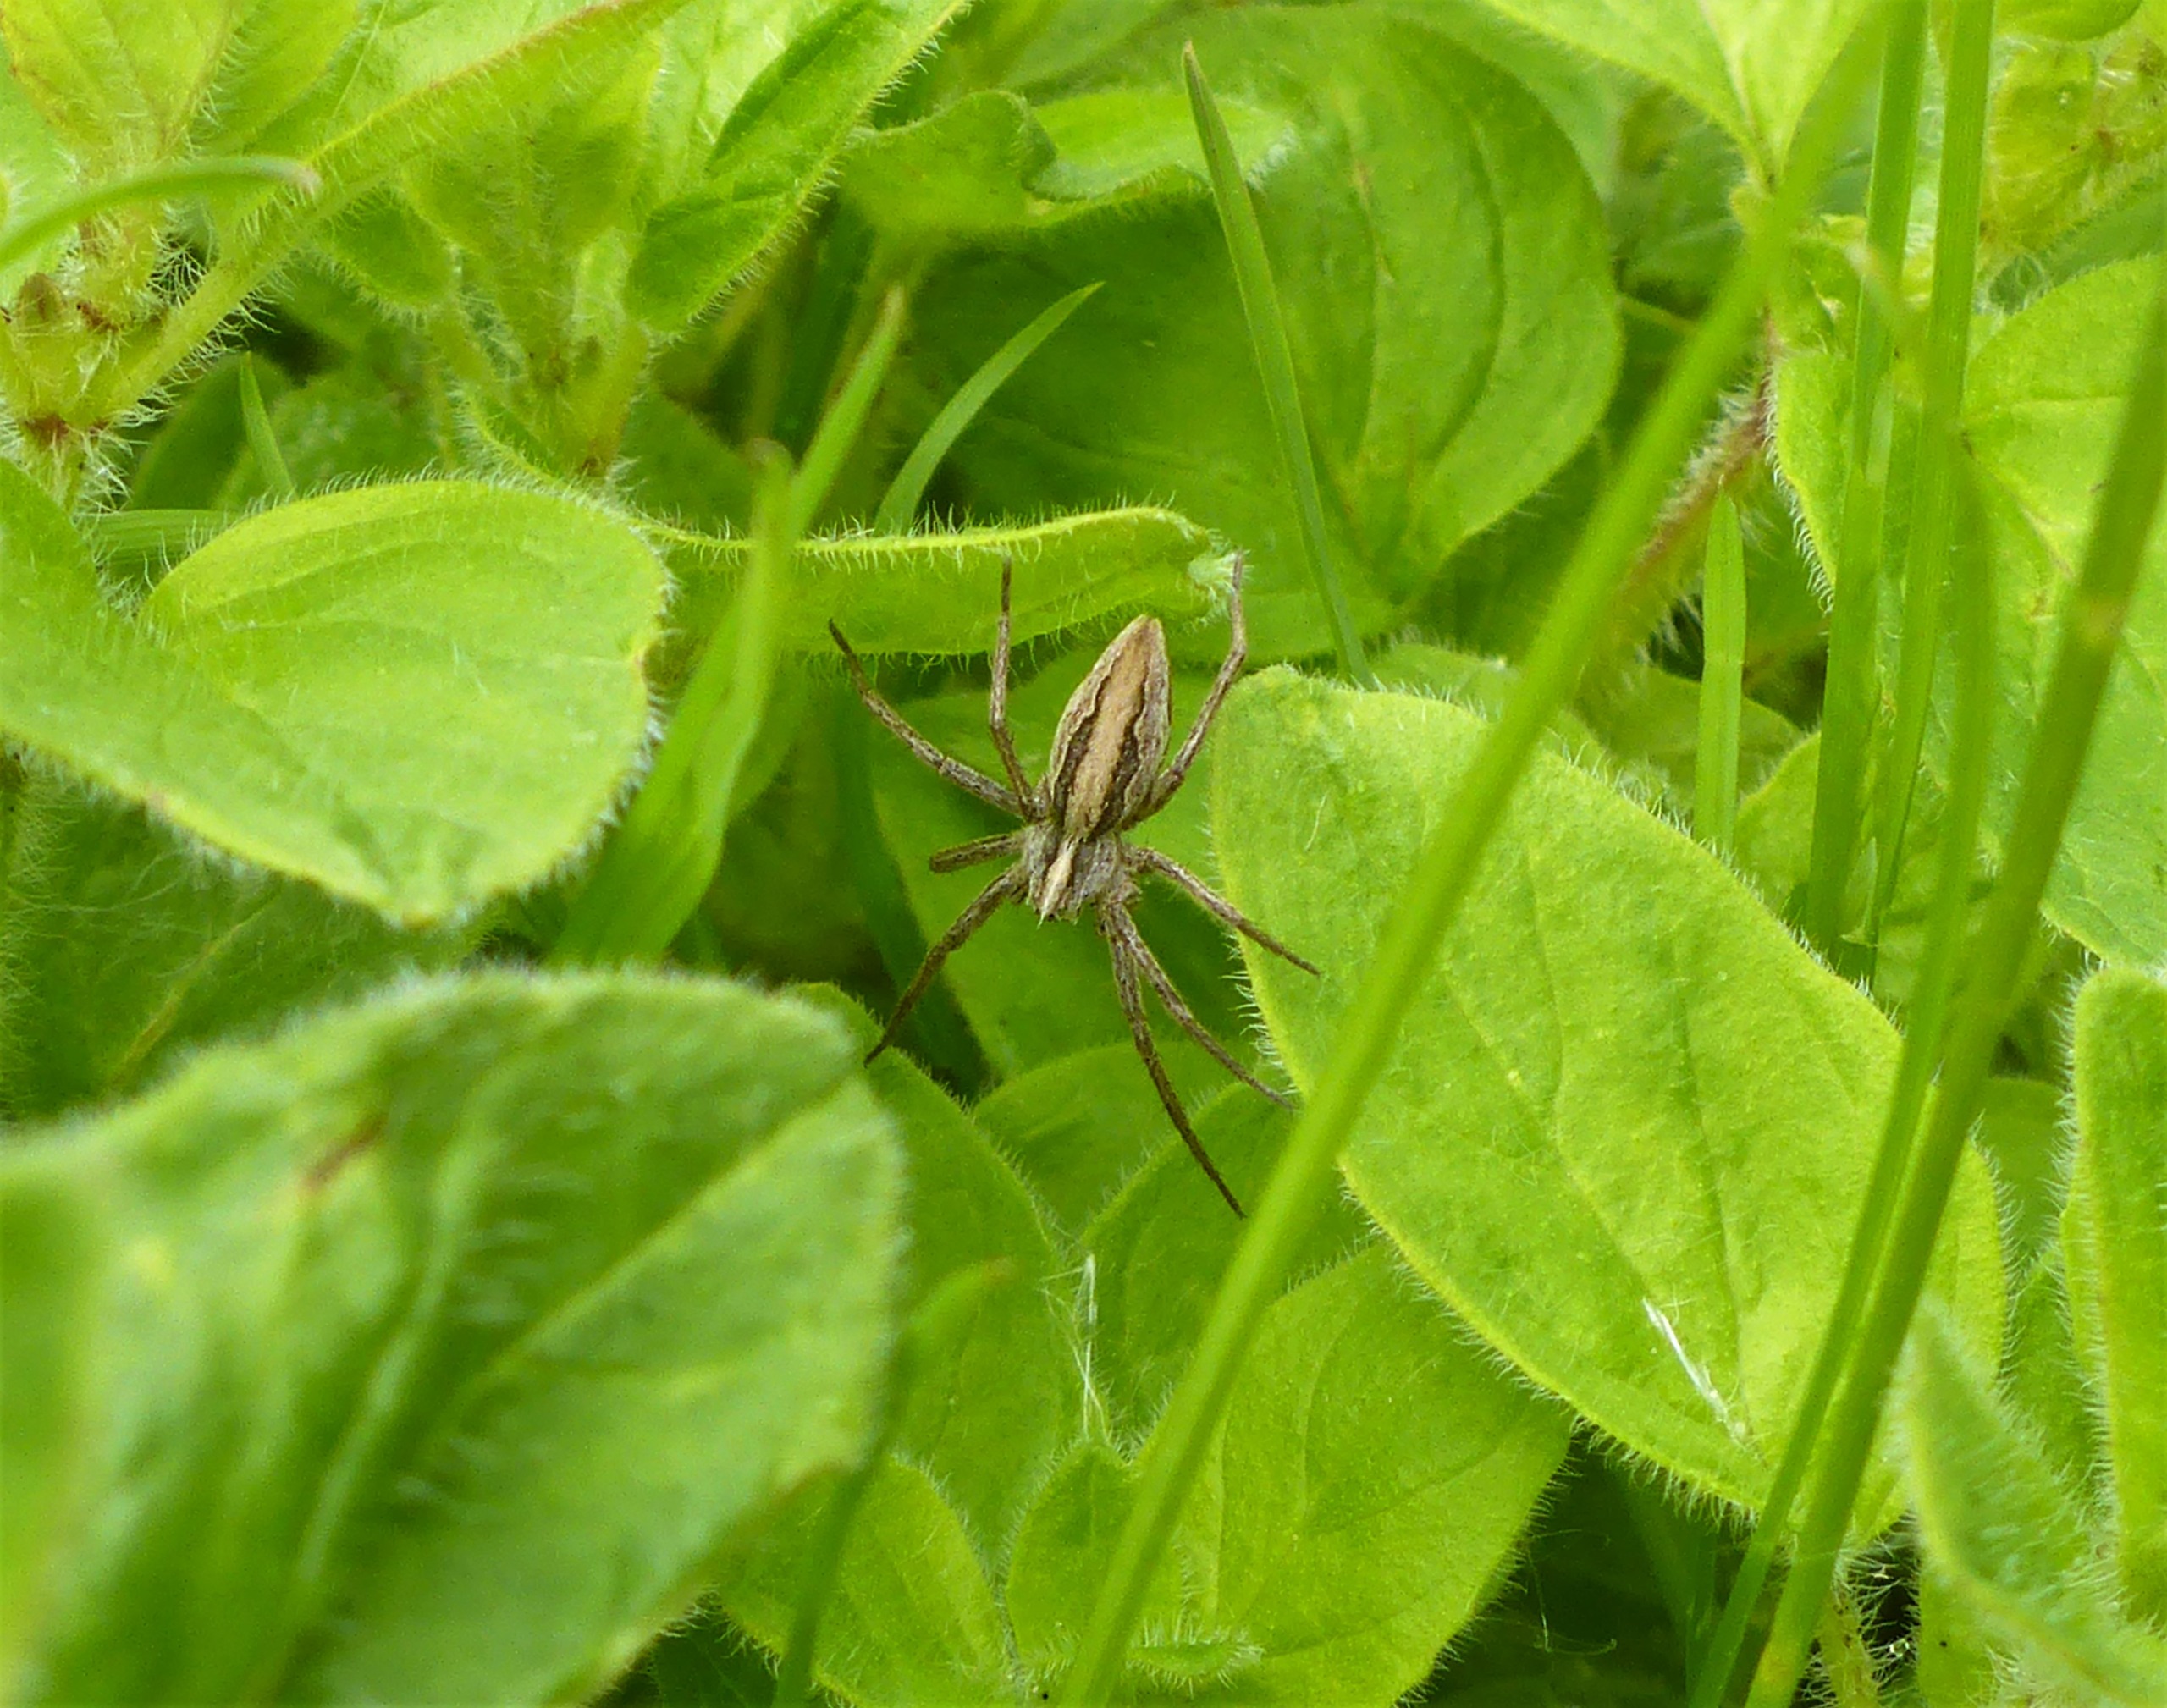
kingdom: Animalia
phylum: Arthropoda
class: Arachnida
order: Araneae
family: Pisauridae
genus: Pisaura
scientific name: Pisaura mirabilis
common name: Almindelig rovedderkop
